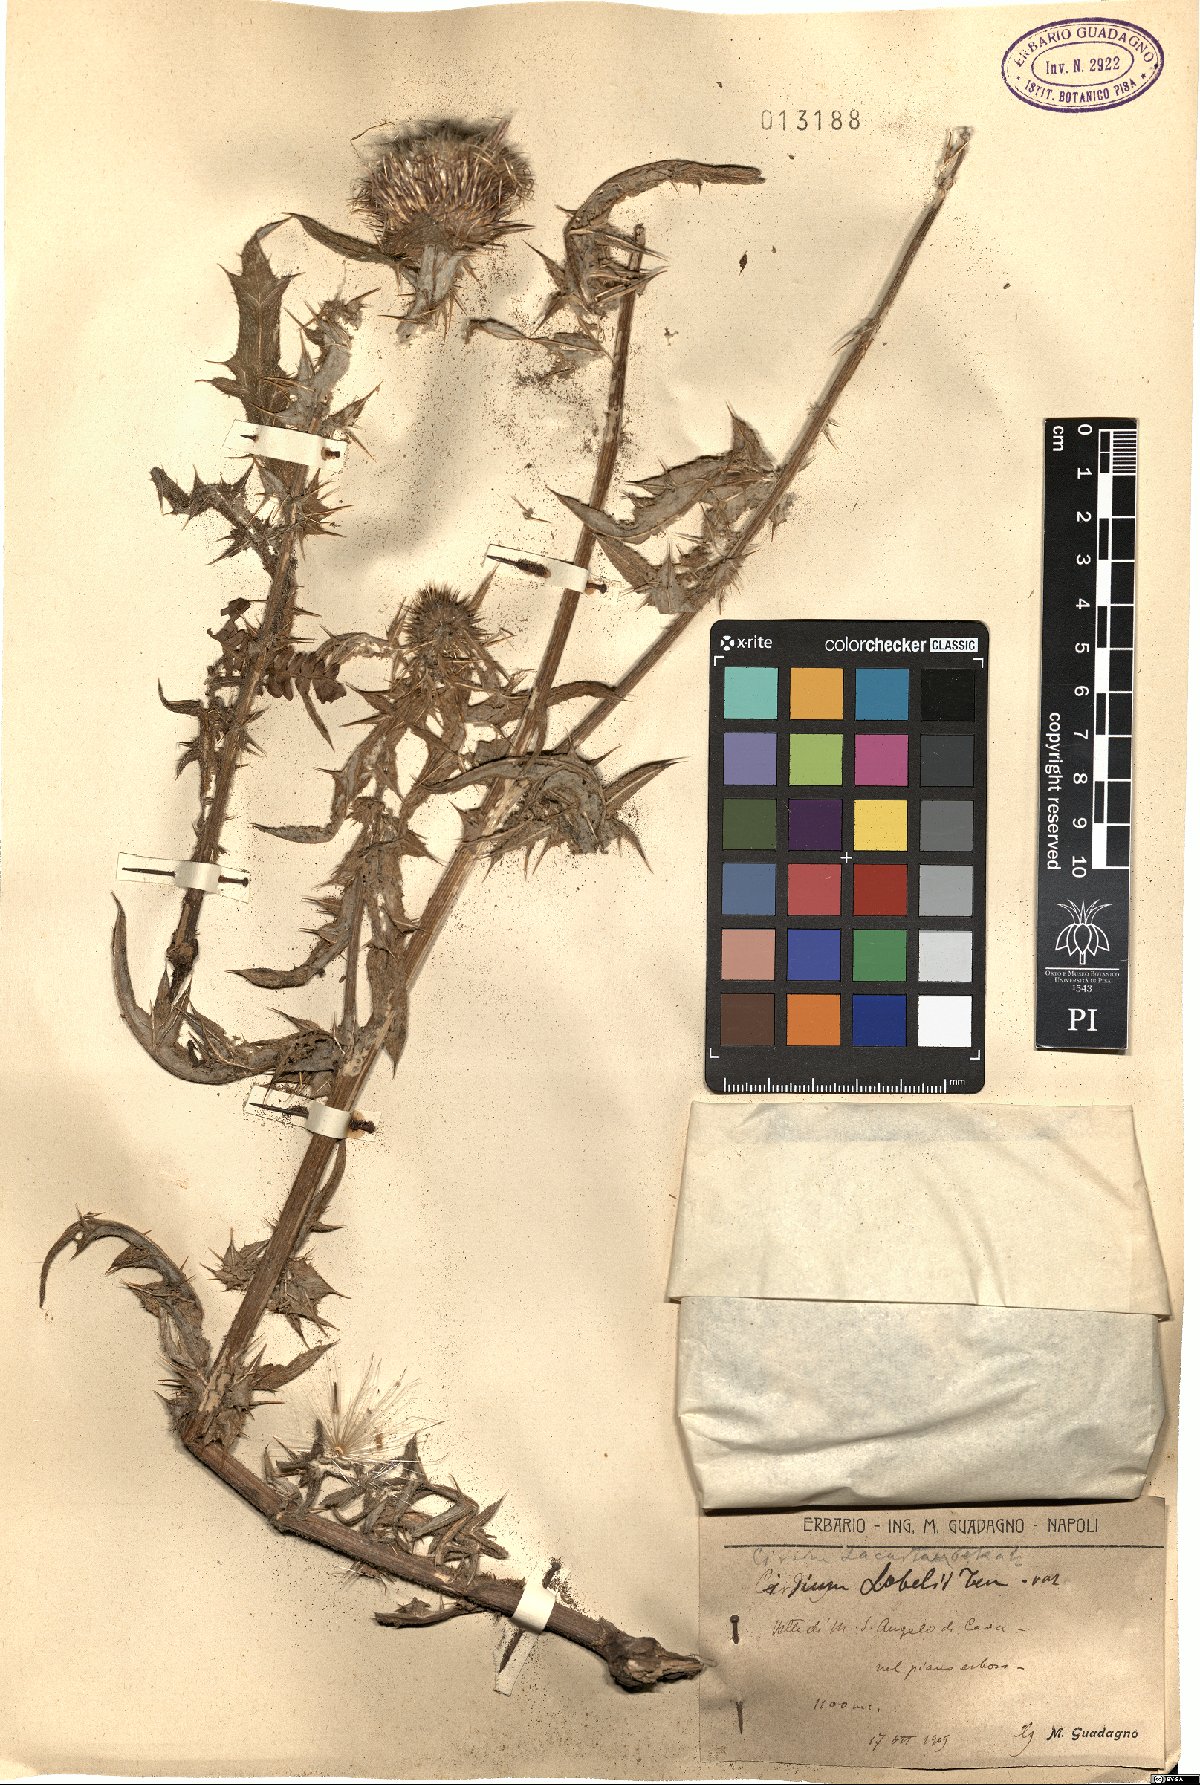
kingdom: Plantae
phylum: Tracheophyta
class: Magnoliopsida
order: Asterales
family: Asteraceae
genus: Lophiolepis
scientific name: Lophiolepis lobelii
